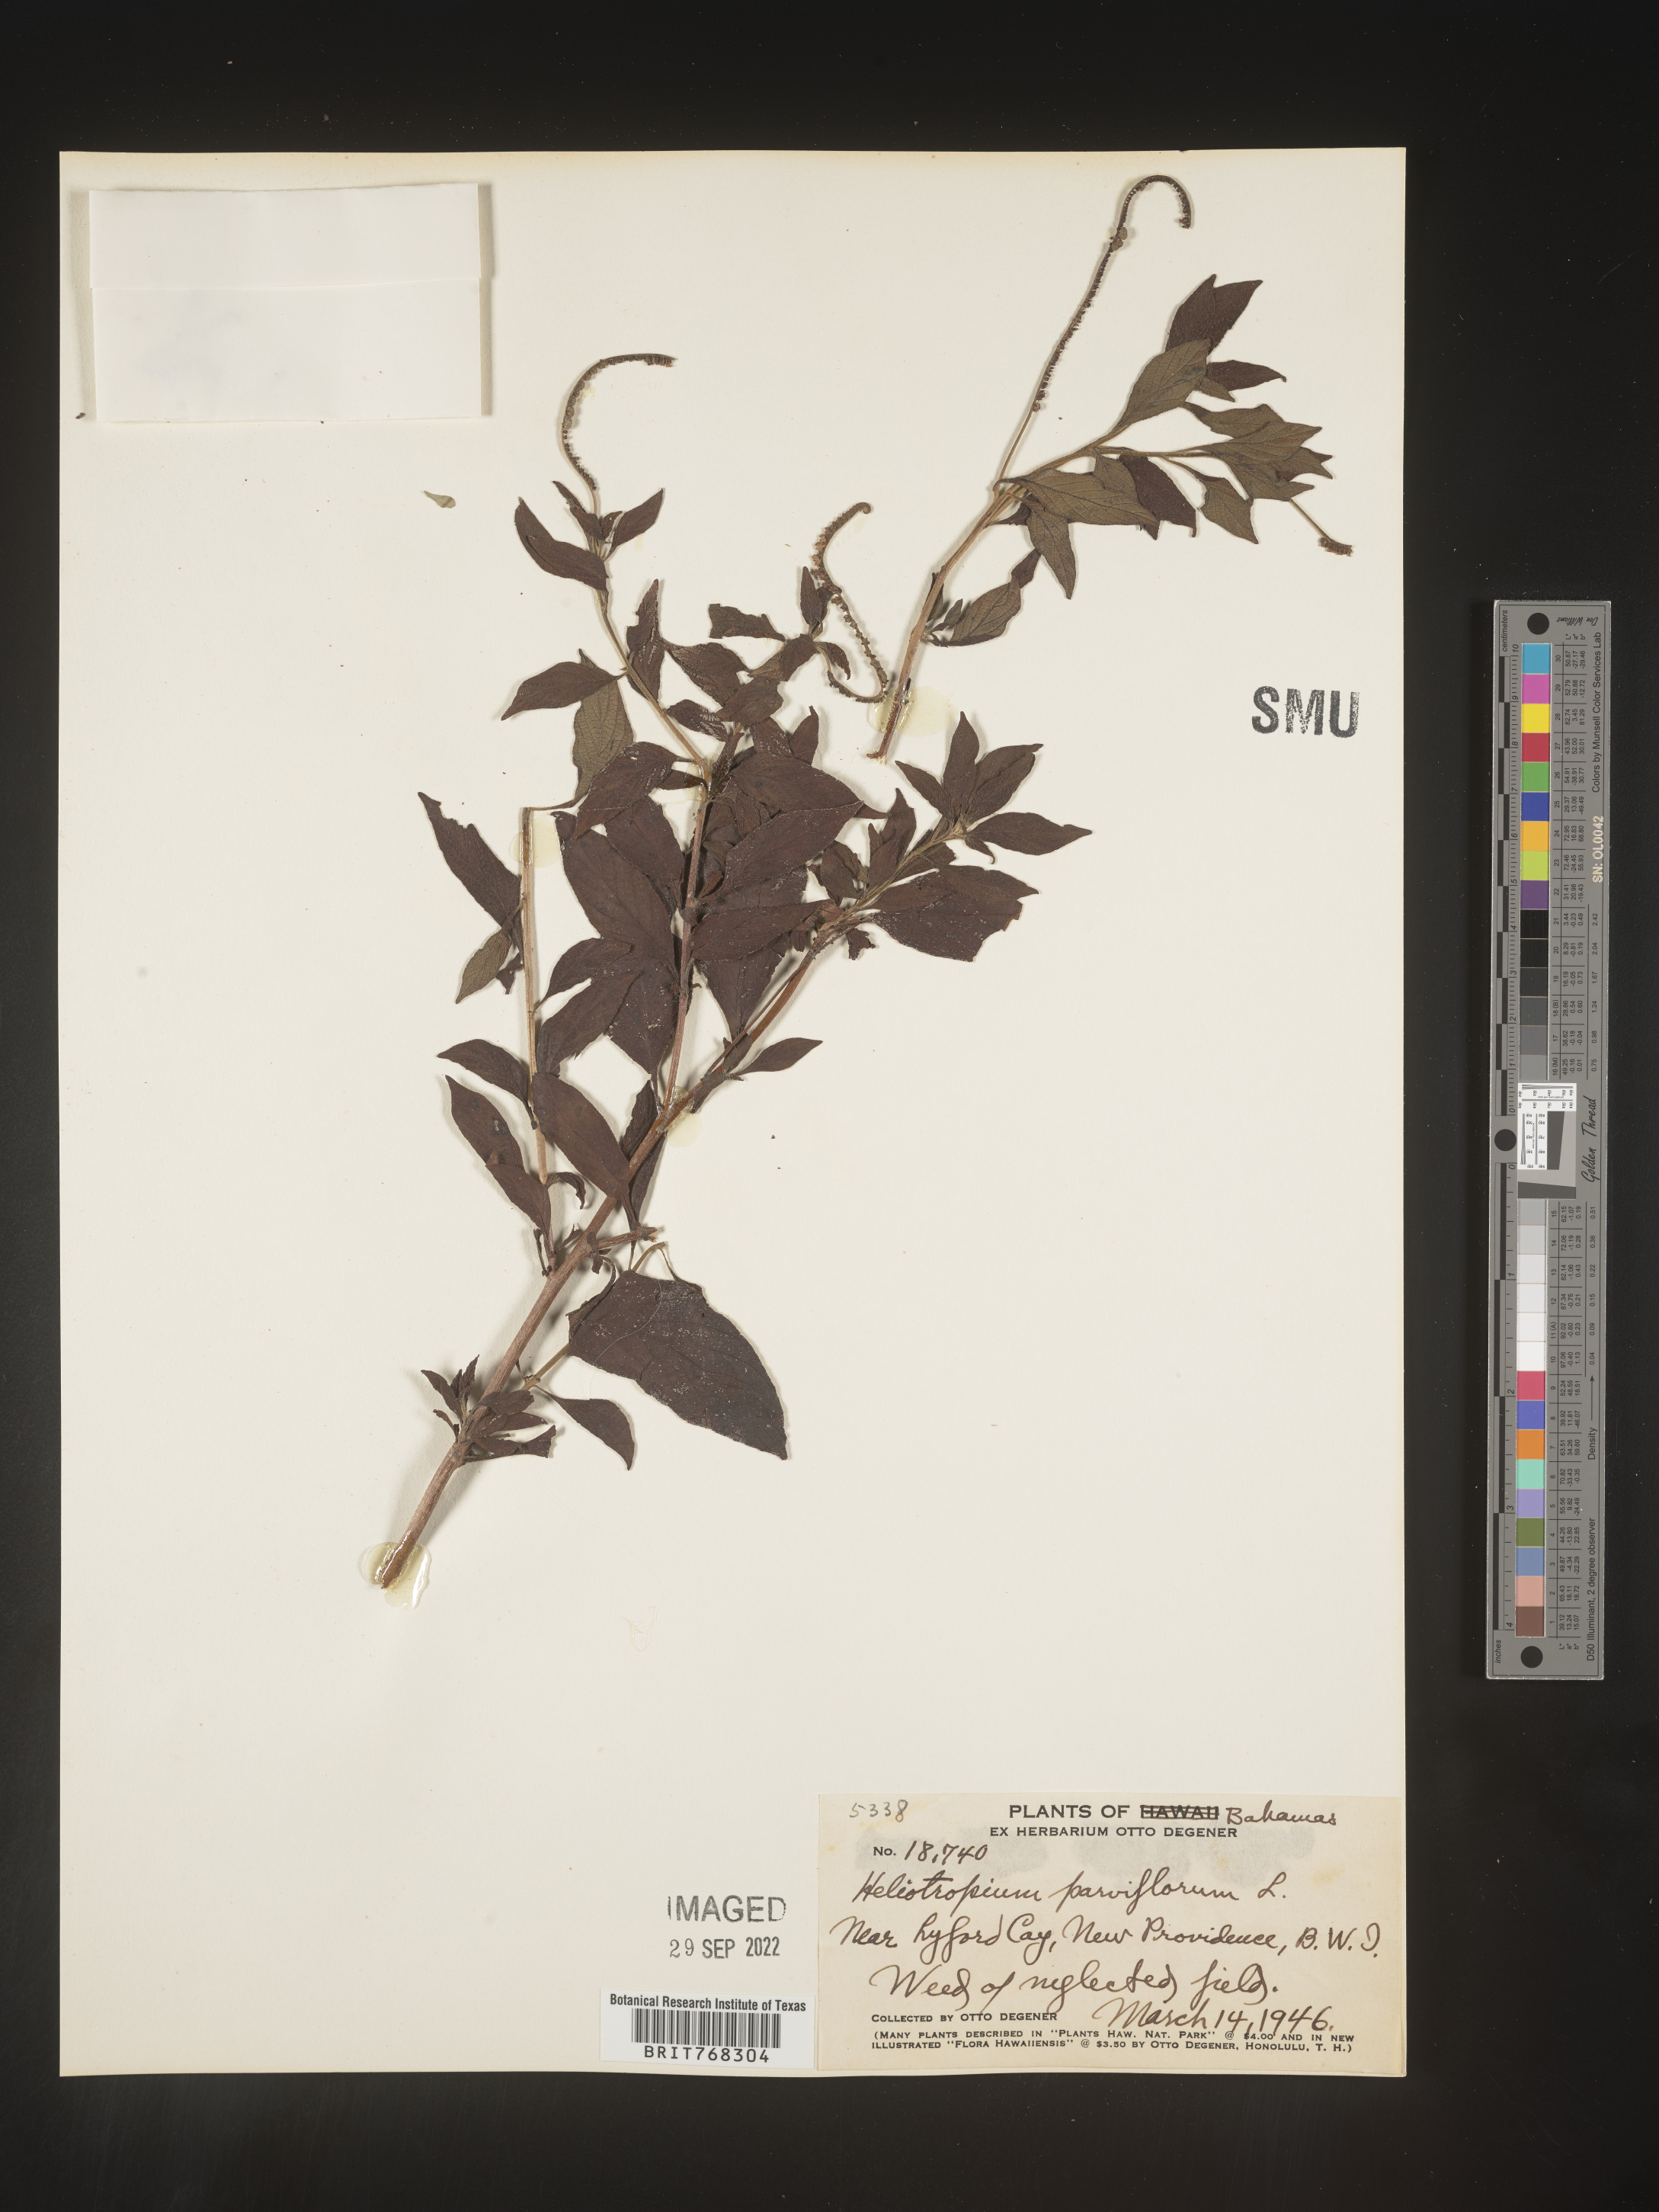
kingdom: Plantae
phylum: Tracheophyta
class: Magnoliopsida
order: Boraginales
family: Heliotropiaceae
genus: Heliotropium
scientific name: Heliotropium
